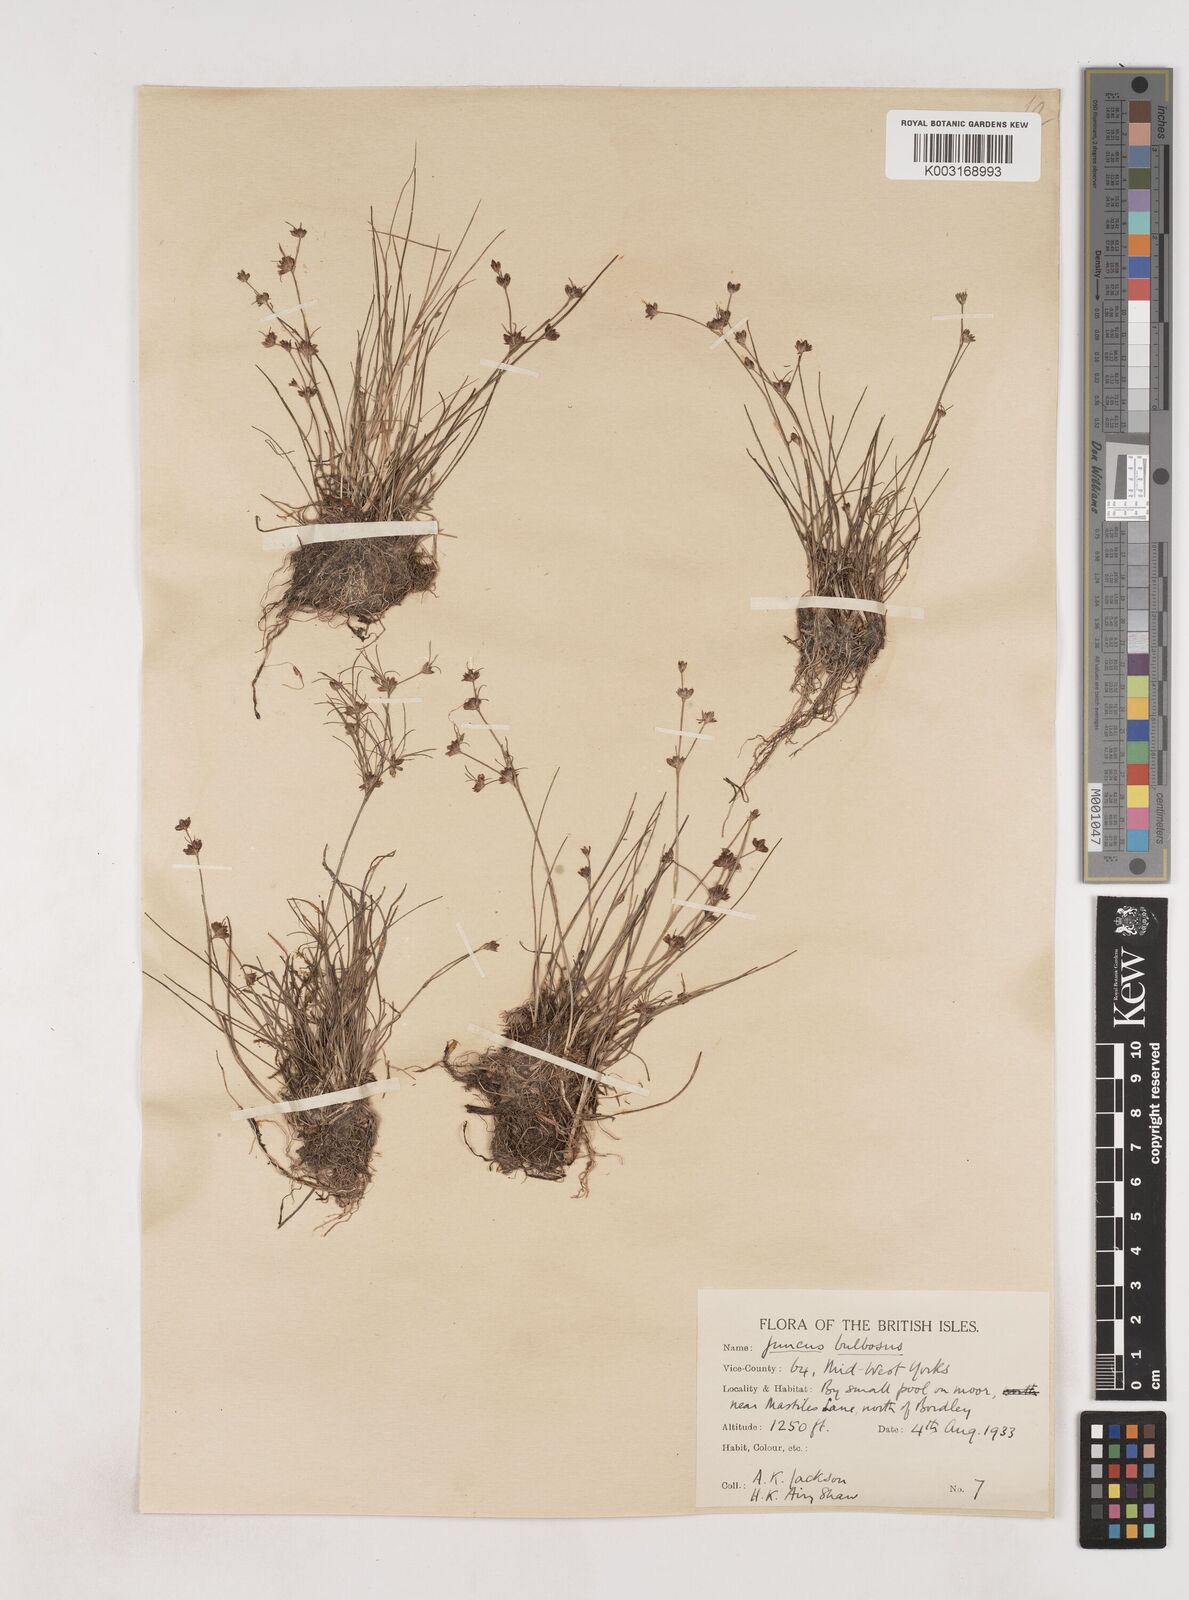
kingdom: Plantae
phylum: Tracheophyta
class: Liliopsida
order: Poales
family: Juncaceae
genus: Juncus
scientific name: Juncus bulbosus
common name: Bulbous rush
